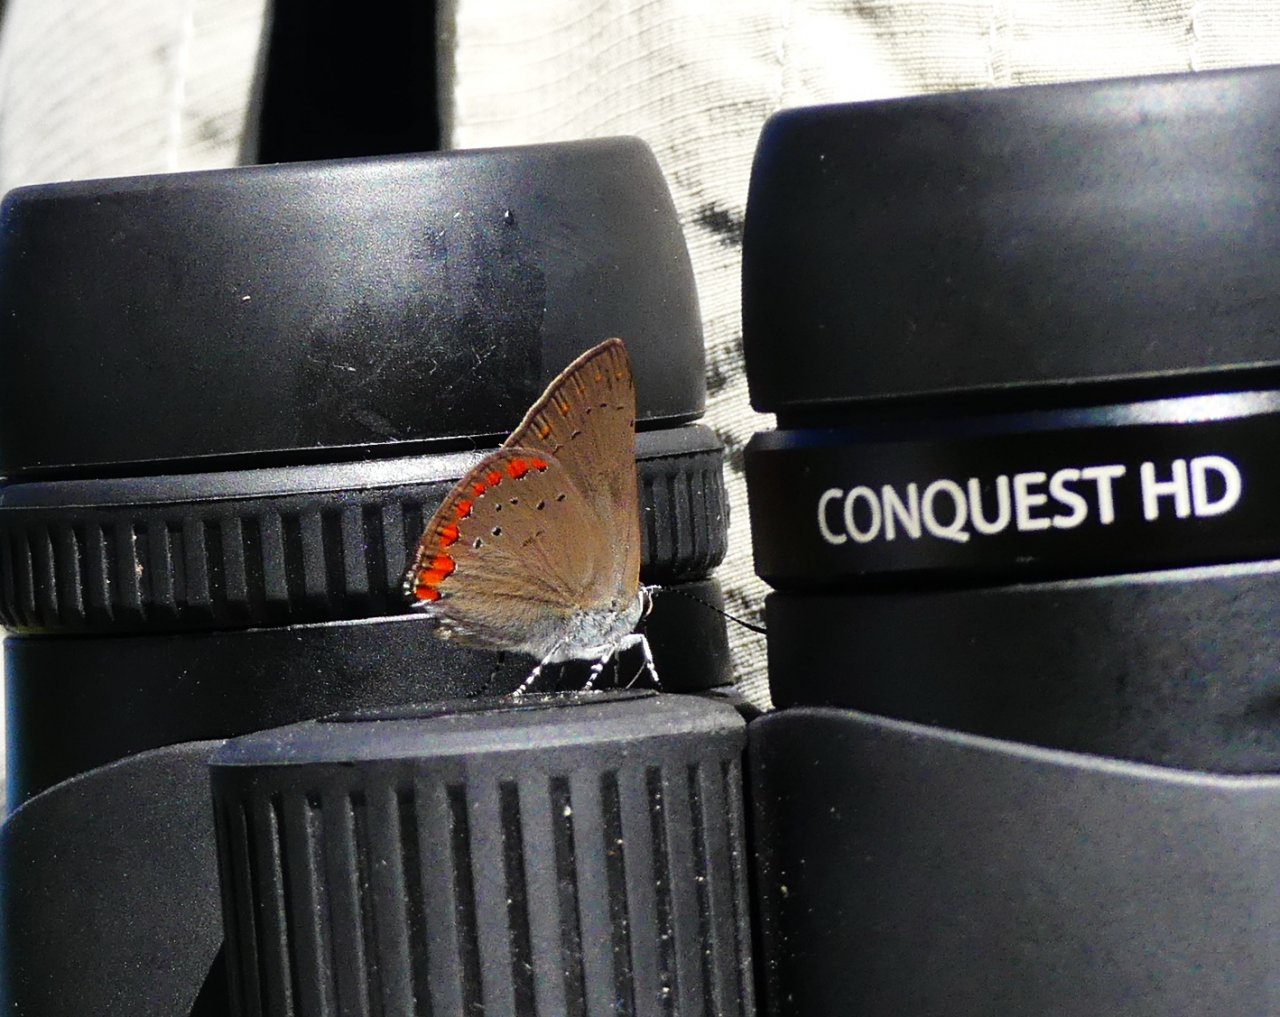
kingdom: Animalia
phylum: Arthropoda
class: Insecta
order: Lepidoptera
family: Lycaenidae
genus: Harkenclenus
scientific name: Harkenclenus titus
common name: Coral Hairstreak
